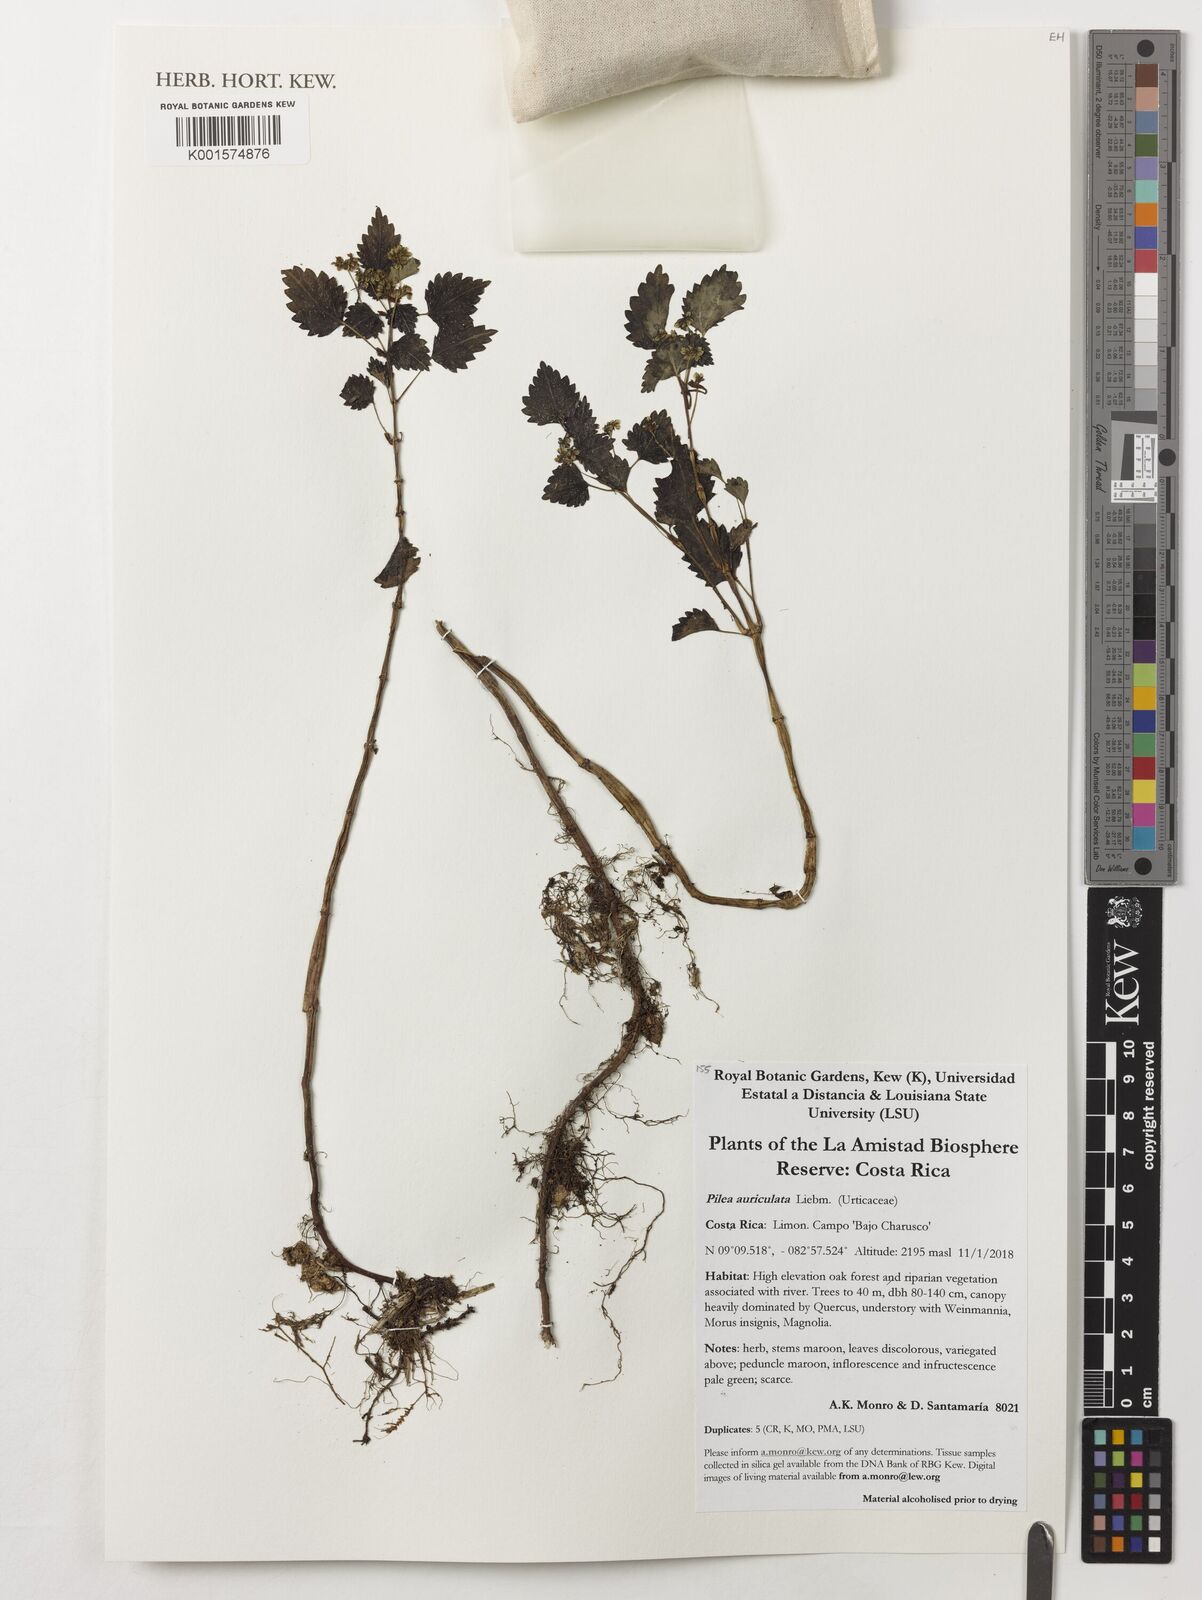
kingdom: Plantae
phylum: Tracheophyta
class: Magnoliopsida
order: Rosales
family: Urticaceae
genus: Pilea
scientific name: Pilea auriculata
